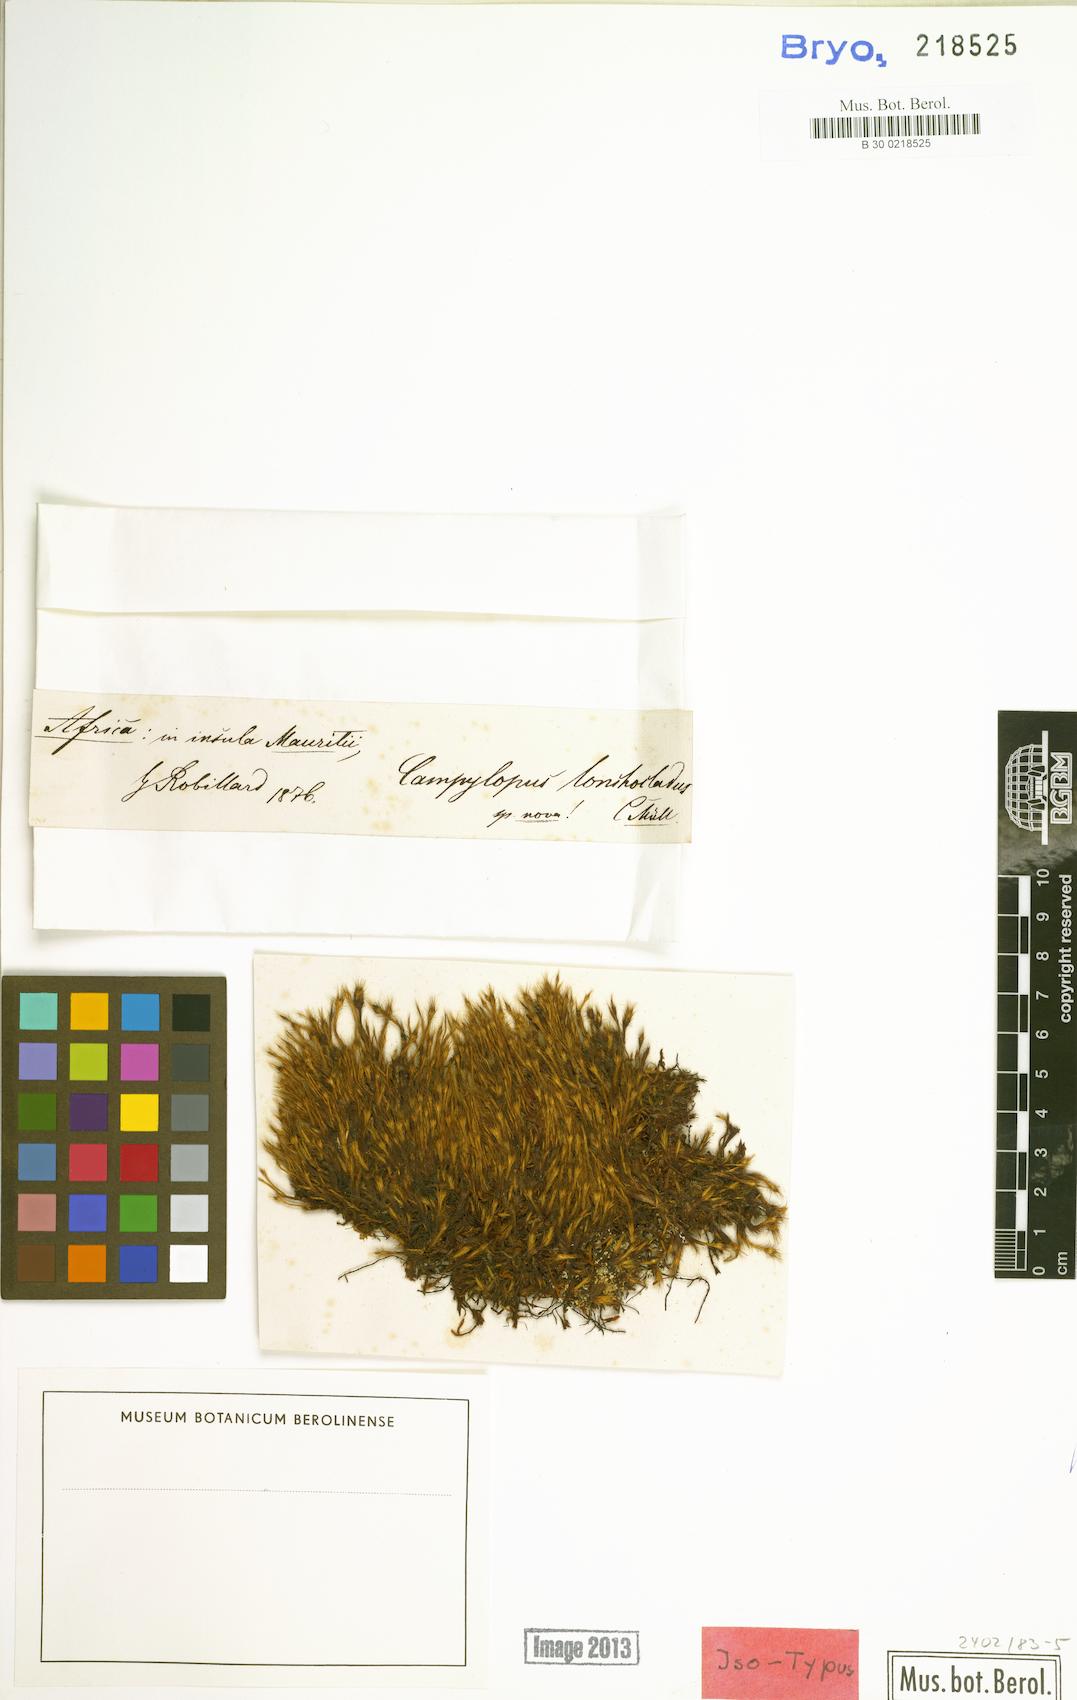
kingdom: Plantae
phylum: Bryophyta
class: Bryopsida
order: Dicranales
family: Leucobryaceae
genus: Campylopus
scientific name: Campylopus aureonitens
